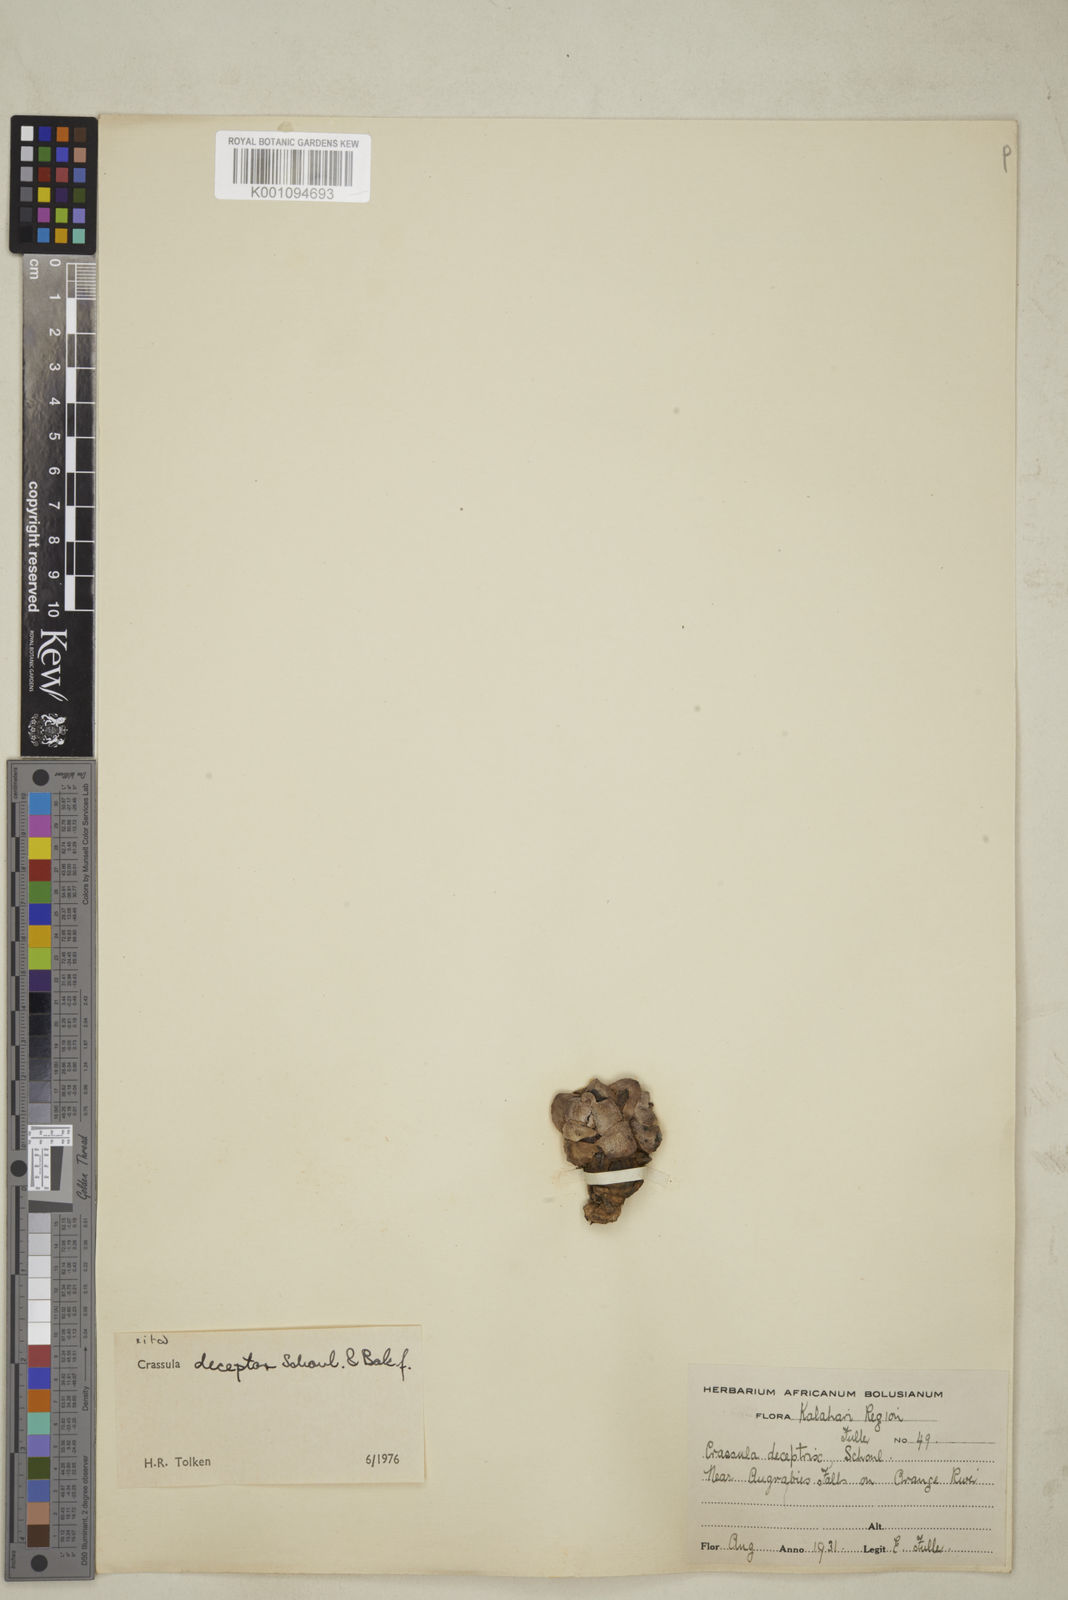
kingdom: Plantae
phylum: Tracheophyta
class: Magnoliopsida
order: Saxifragales
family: Crassulaceae
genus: Crassula
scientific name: Crassula
